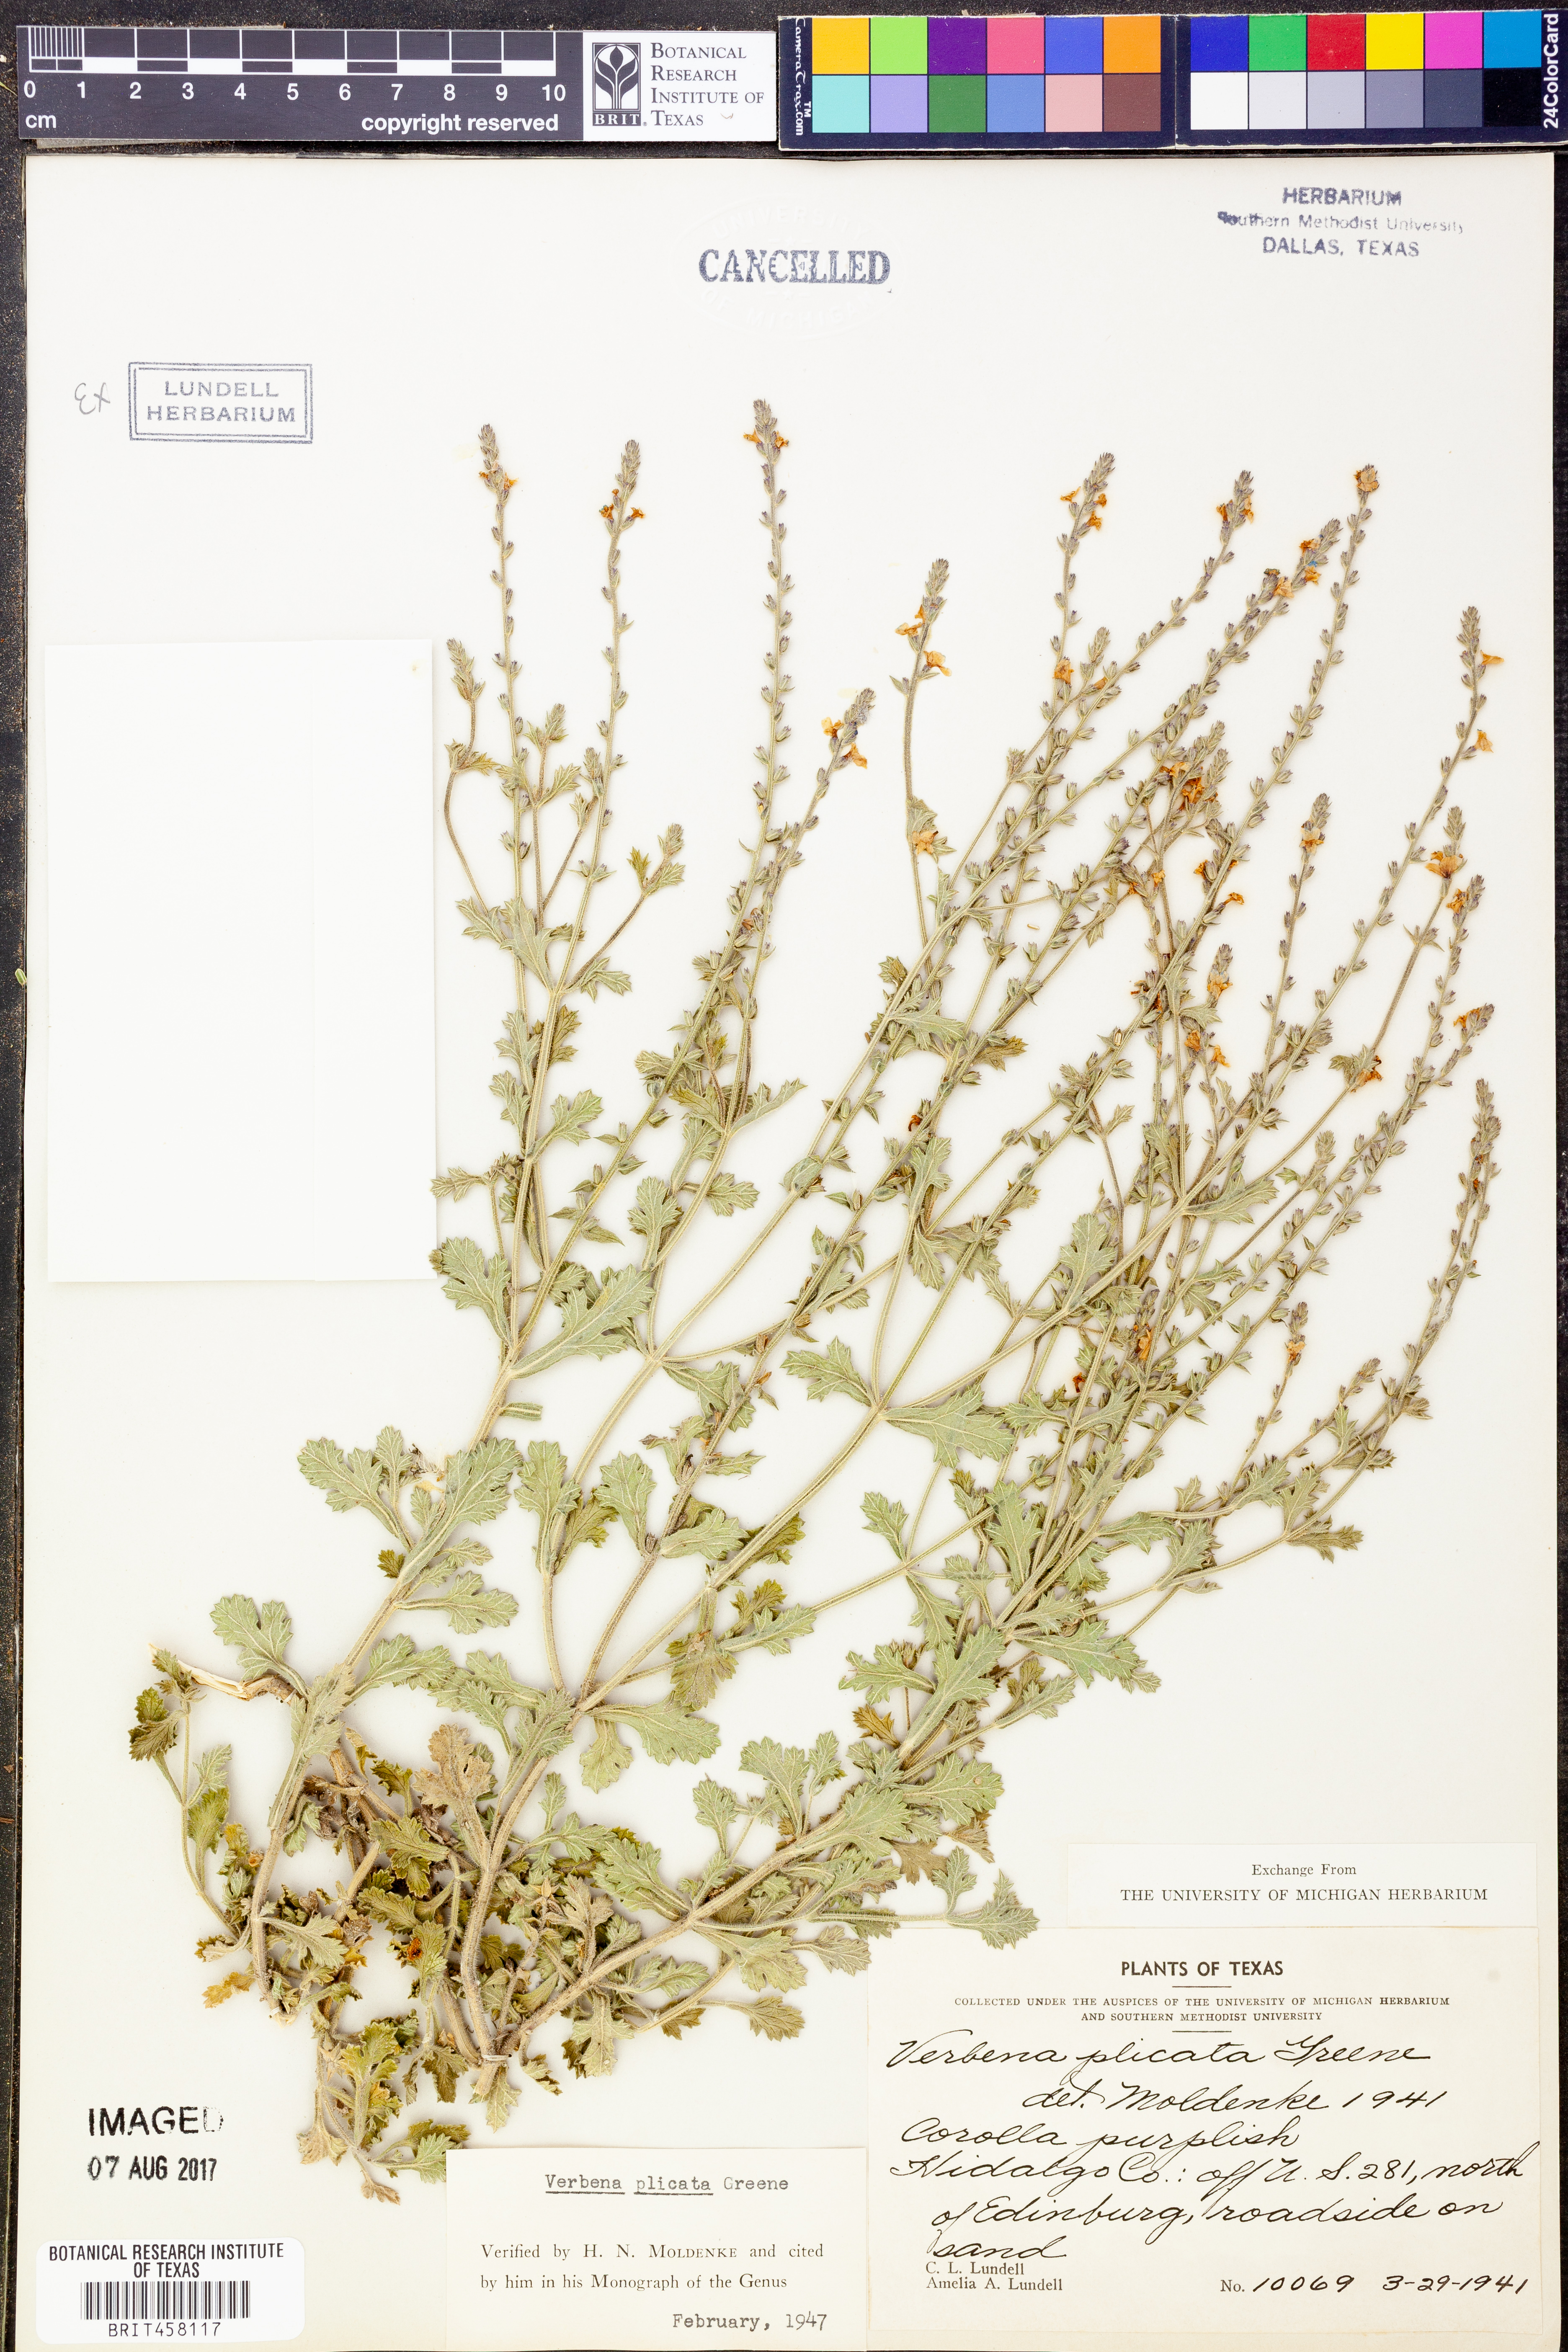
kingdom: Plantae
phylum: Tracheophyta
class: Magnoliopsida
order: Lamiales
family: Verbenaceae
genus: Verbena
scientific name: Verbena plicata
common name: Fan-leaf vervain
